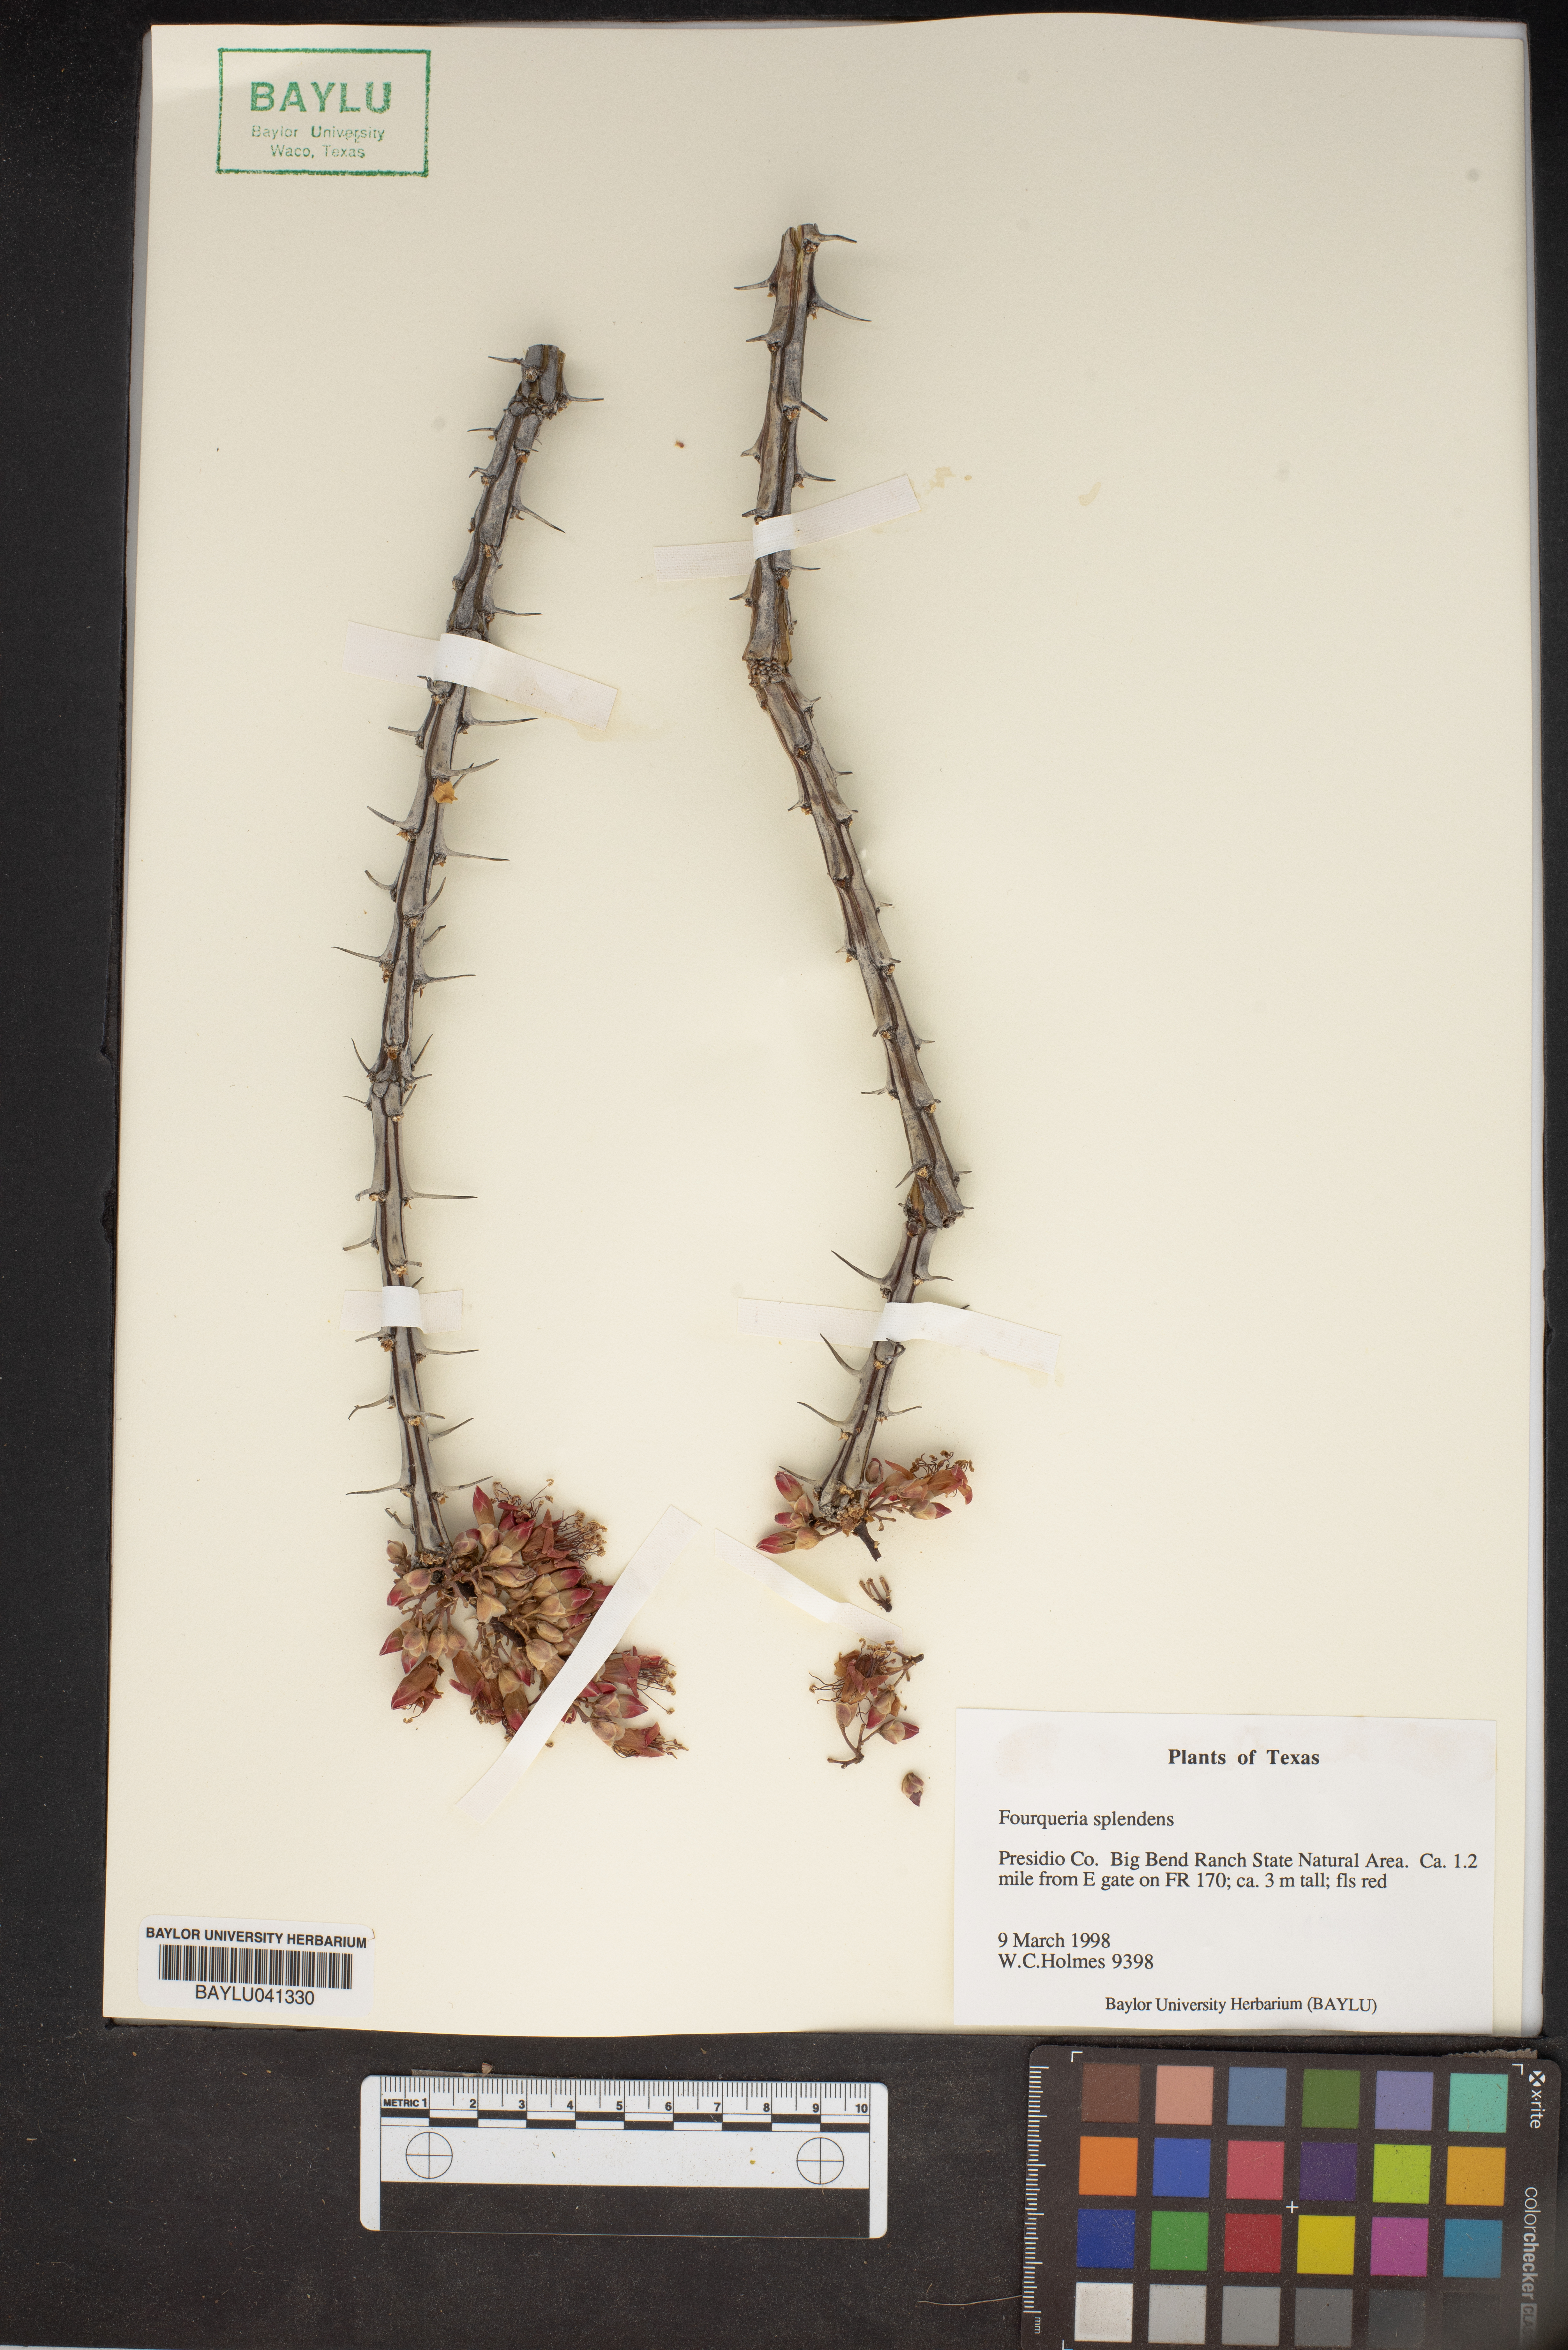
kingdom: Plantae
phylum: Tracheophyta
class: Magnoliopsida
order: Ericales
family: Fouquieriaceae
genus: Fouquieria
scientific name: Fouquieria splendens
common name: Vine-cactus
